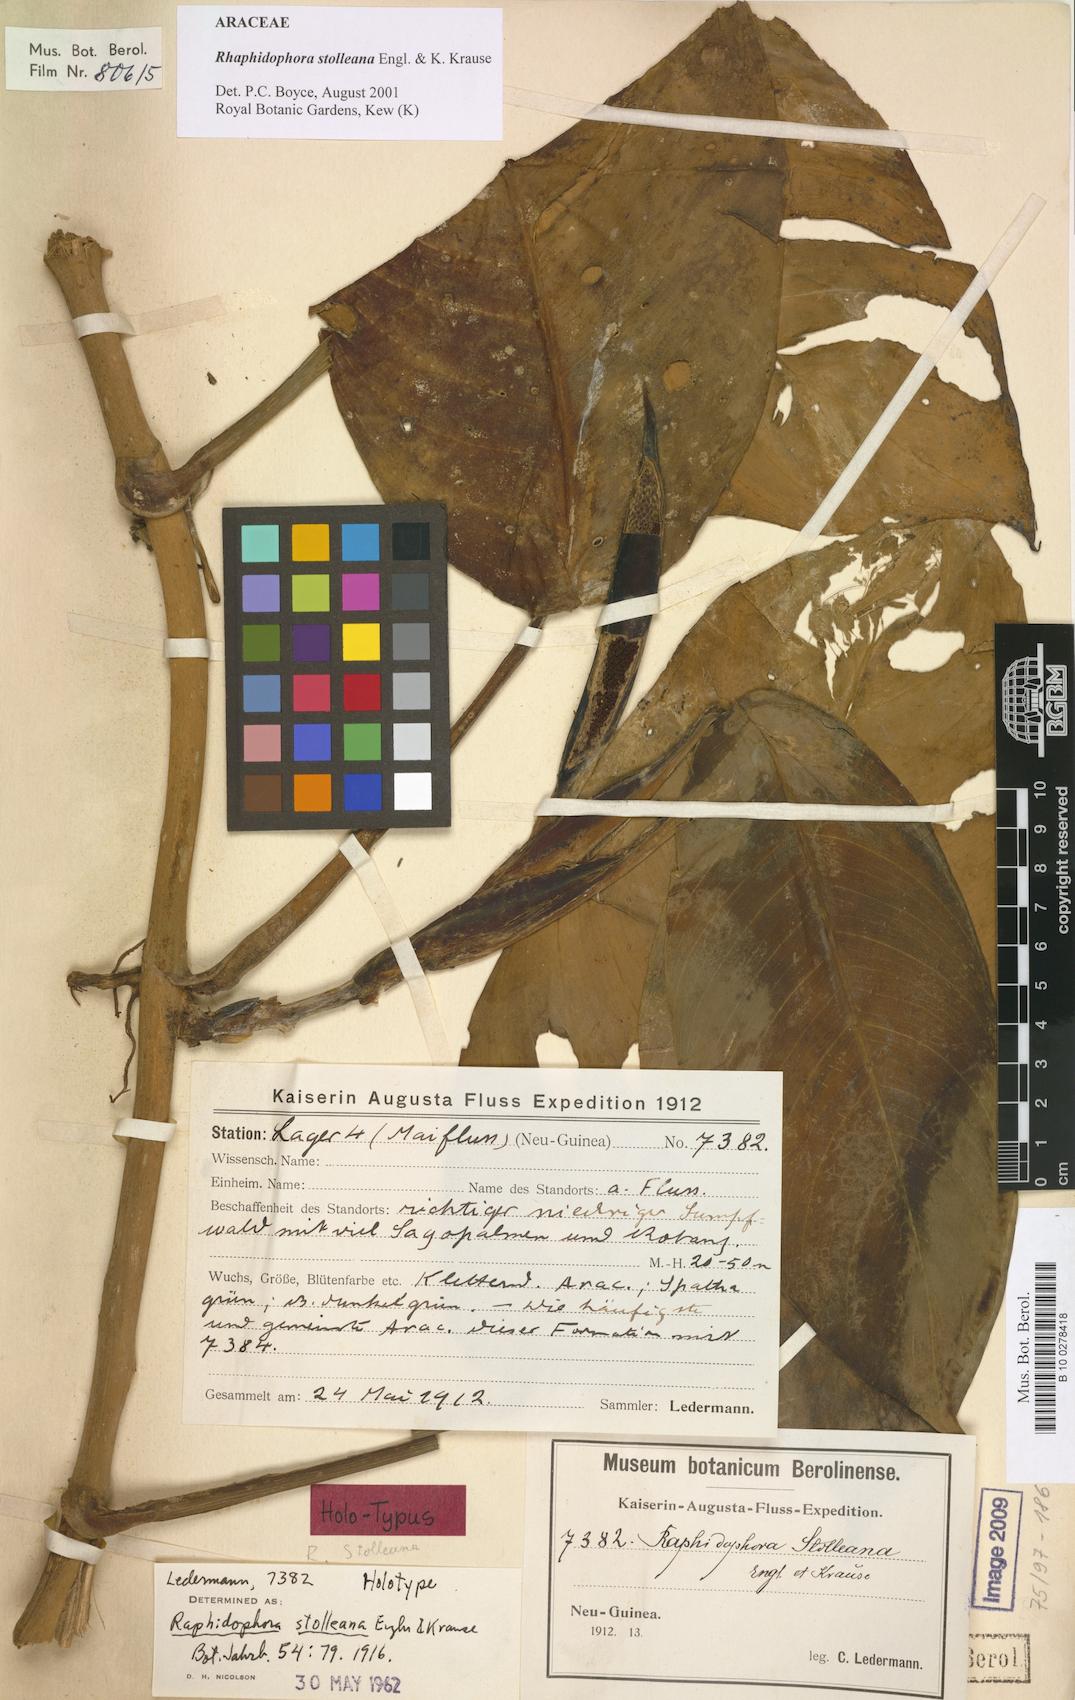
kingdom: Plantae
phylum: Tracheophyta
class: Liliopsida
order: Alismatales
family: Araceae
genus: Rhaphidophora
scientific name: Rhaphidophora stolleana
